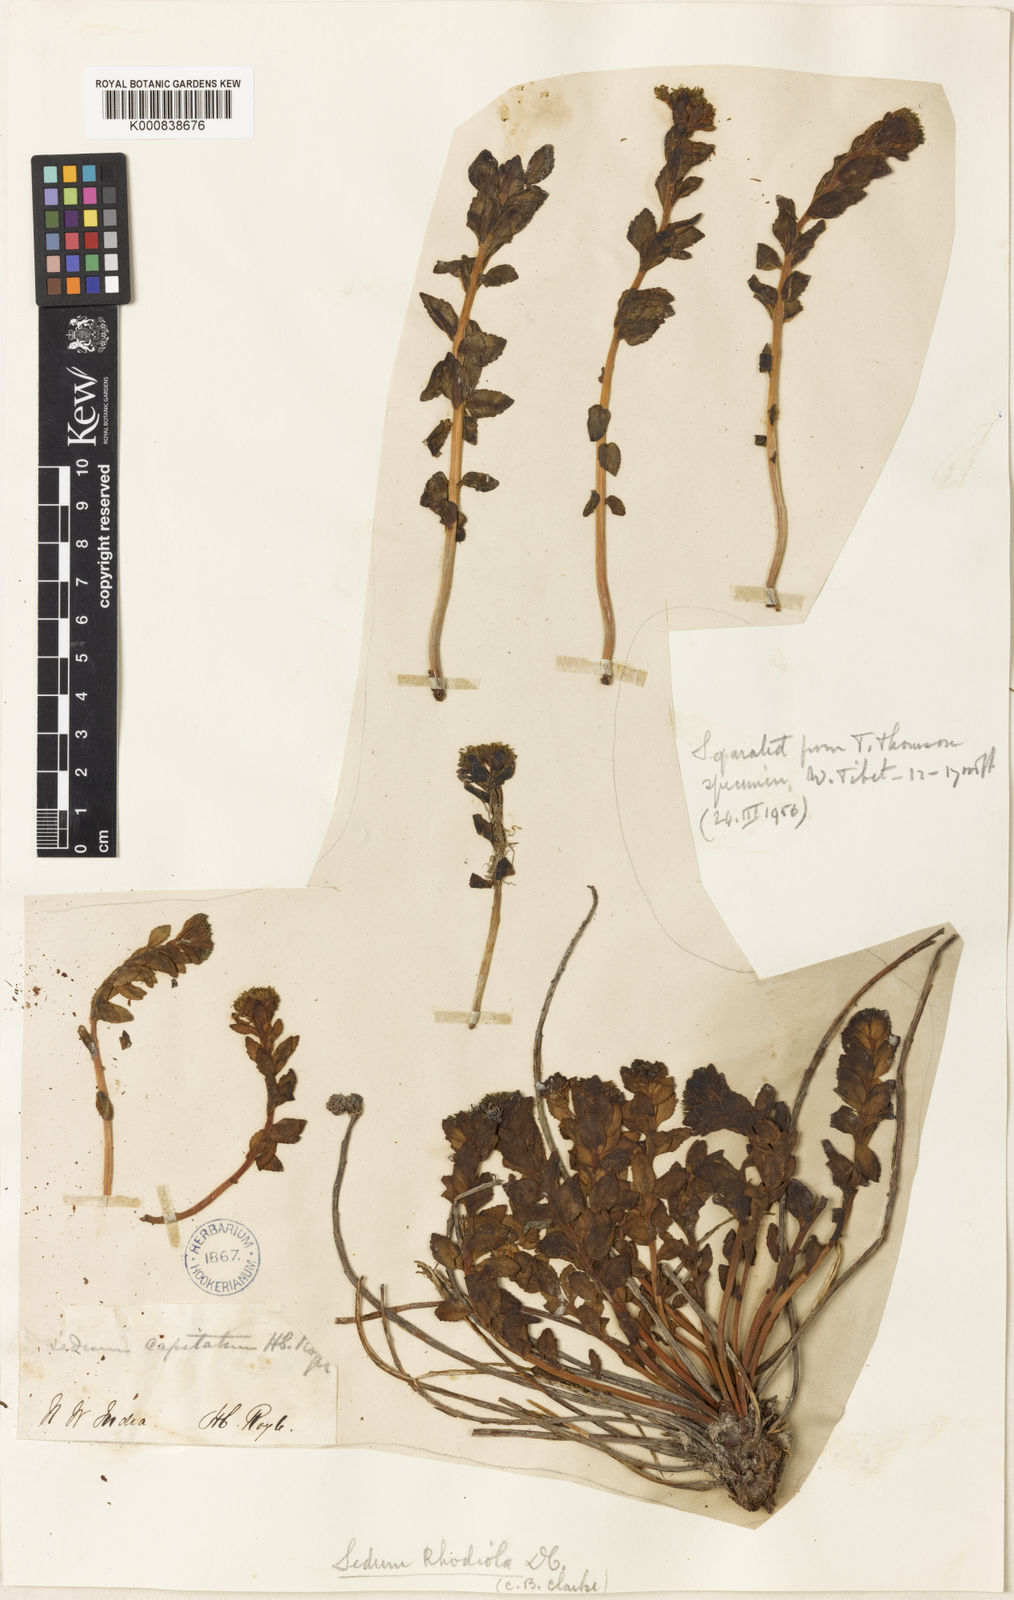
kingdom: Plantae
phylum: Tracheophyta
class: Magnoliopsida
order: Saxifragales
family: Crassulaceae
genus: Rhodiola
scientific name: Rhodiola rosea
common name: Roseroot
